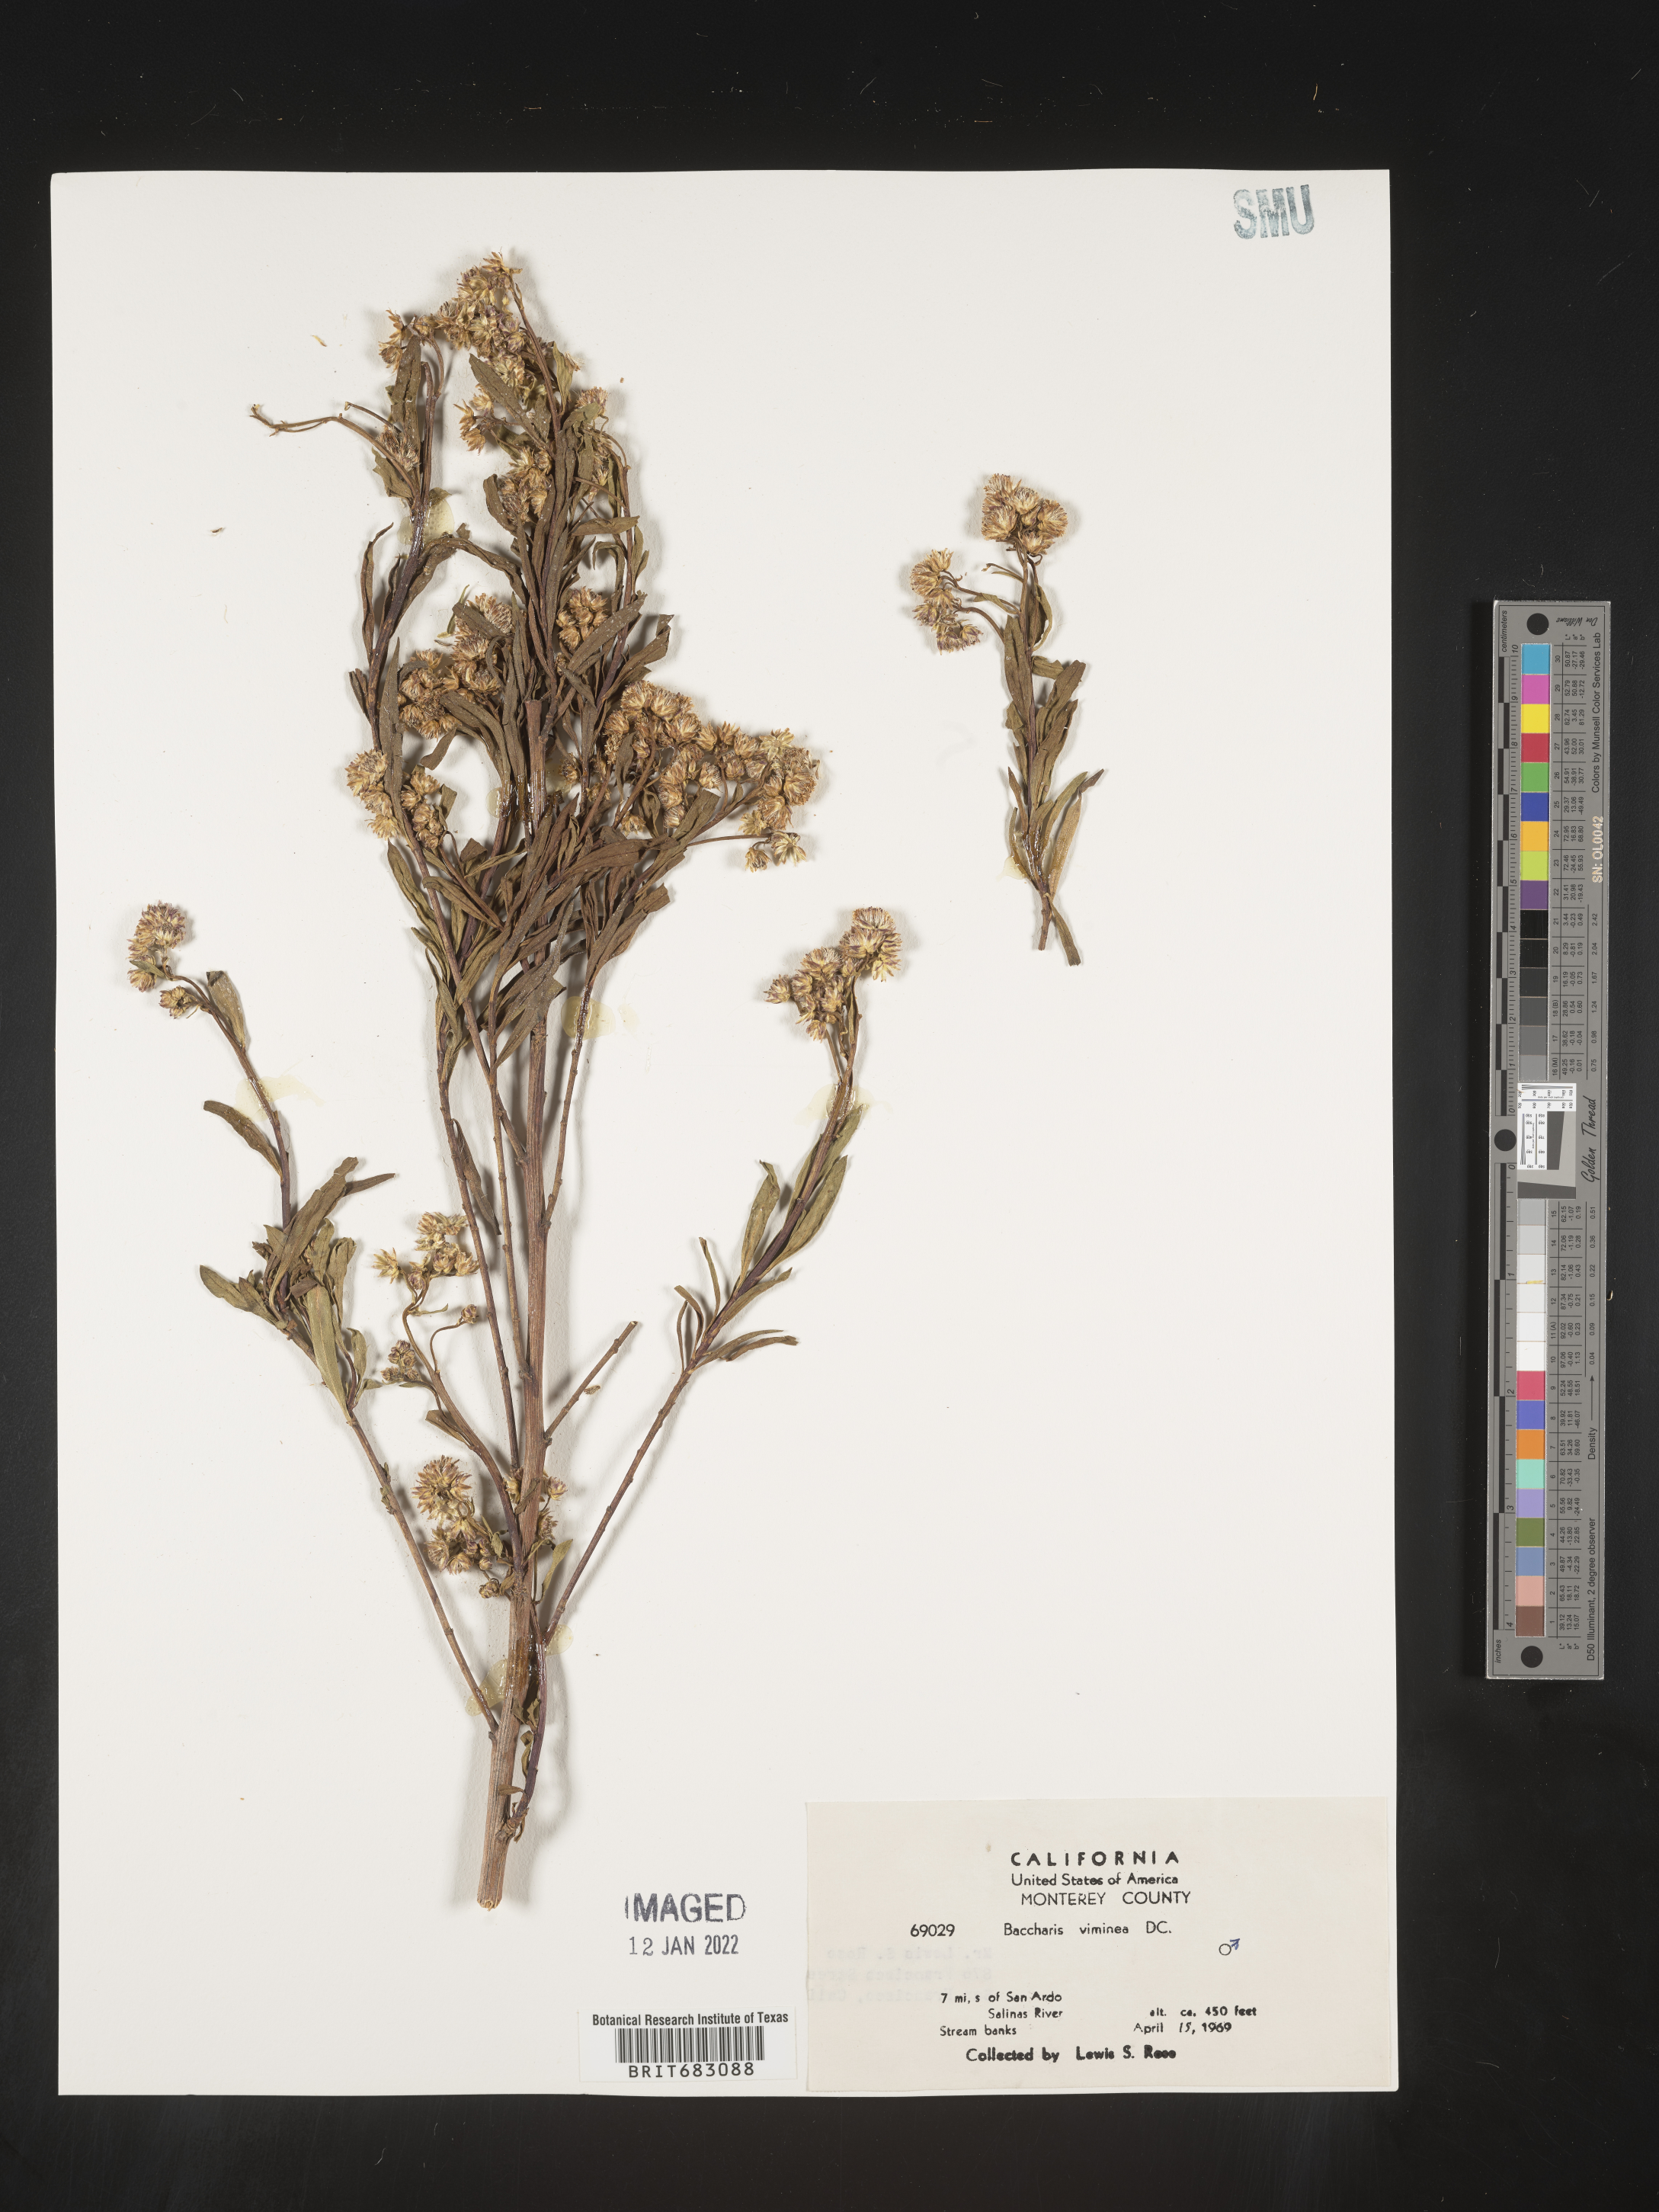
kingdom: Plantae
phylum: Tracheophyta
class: Magnoliopsida
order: Asterales
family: Asteraceae
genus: Baccharis
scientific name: Baccharis salicifolia
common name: Sticky baccharis
